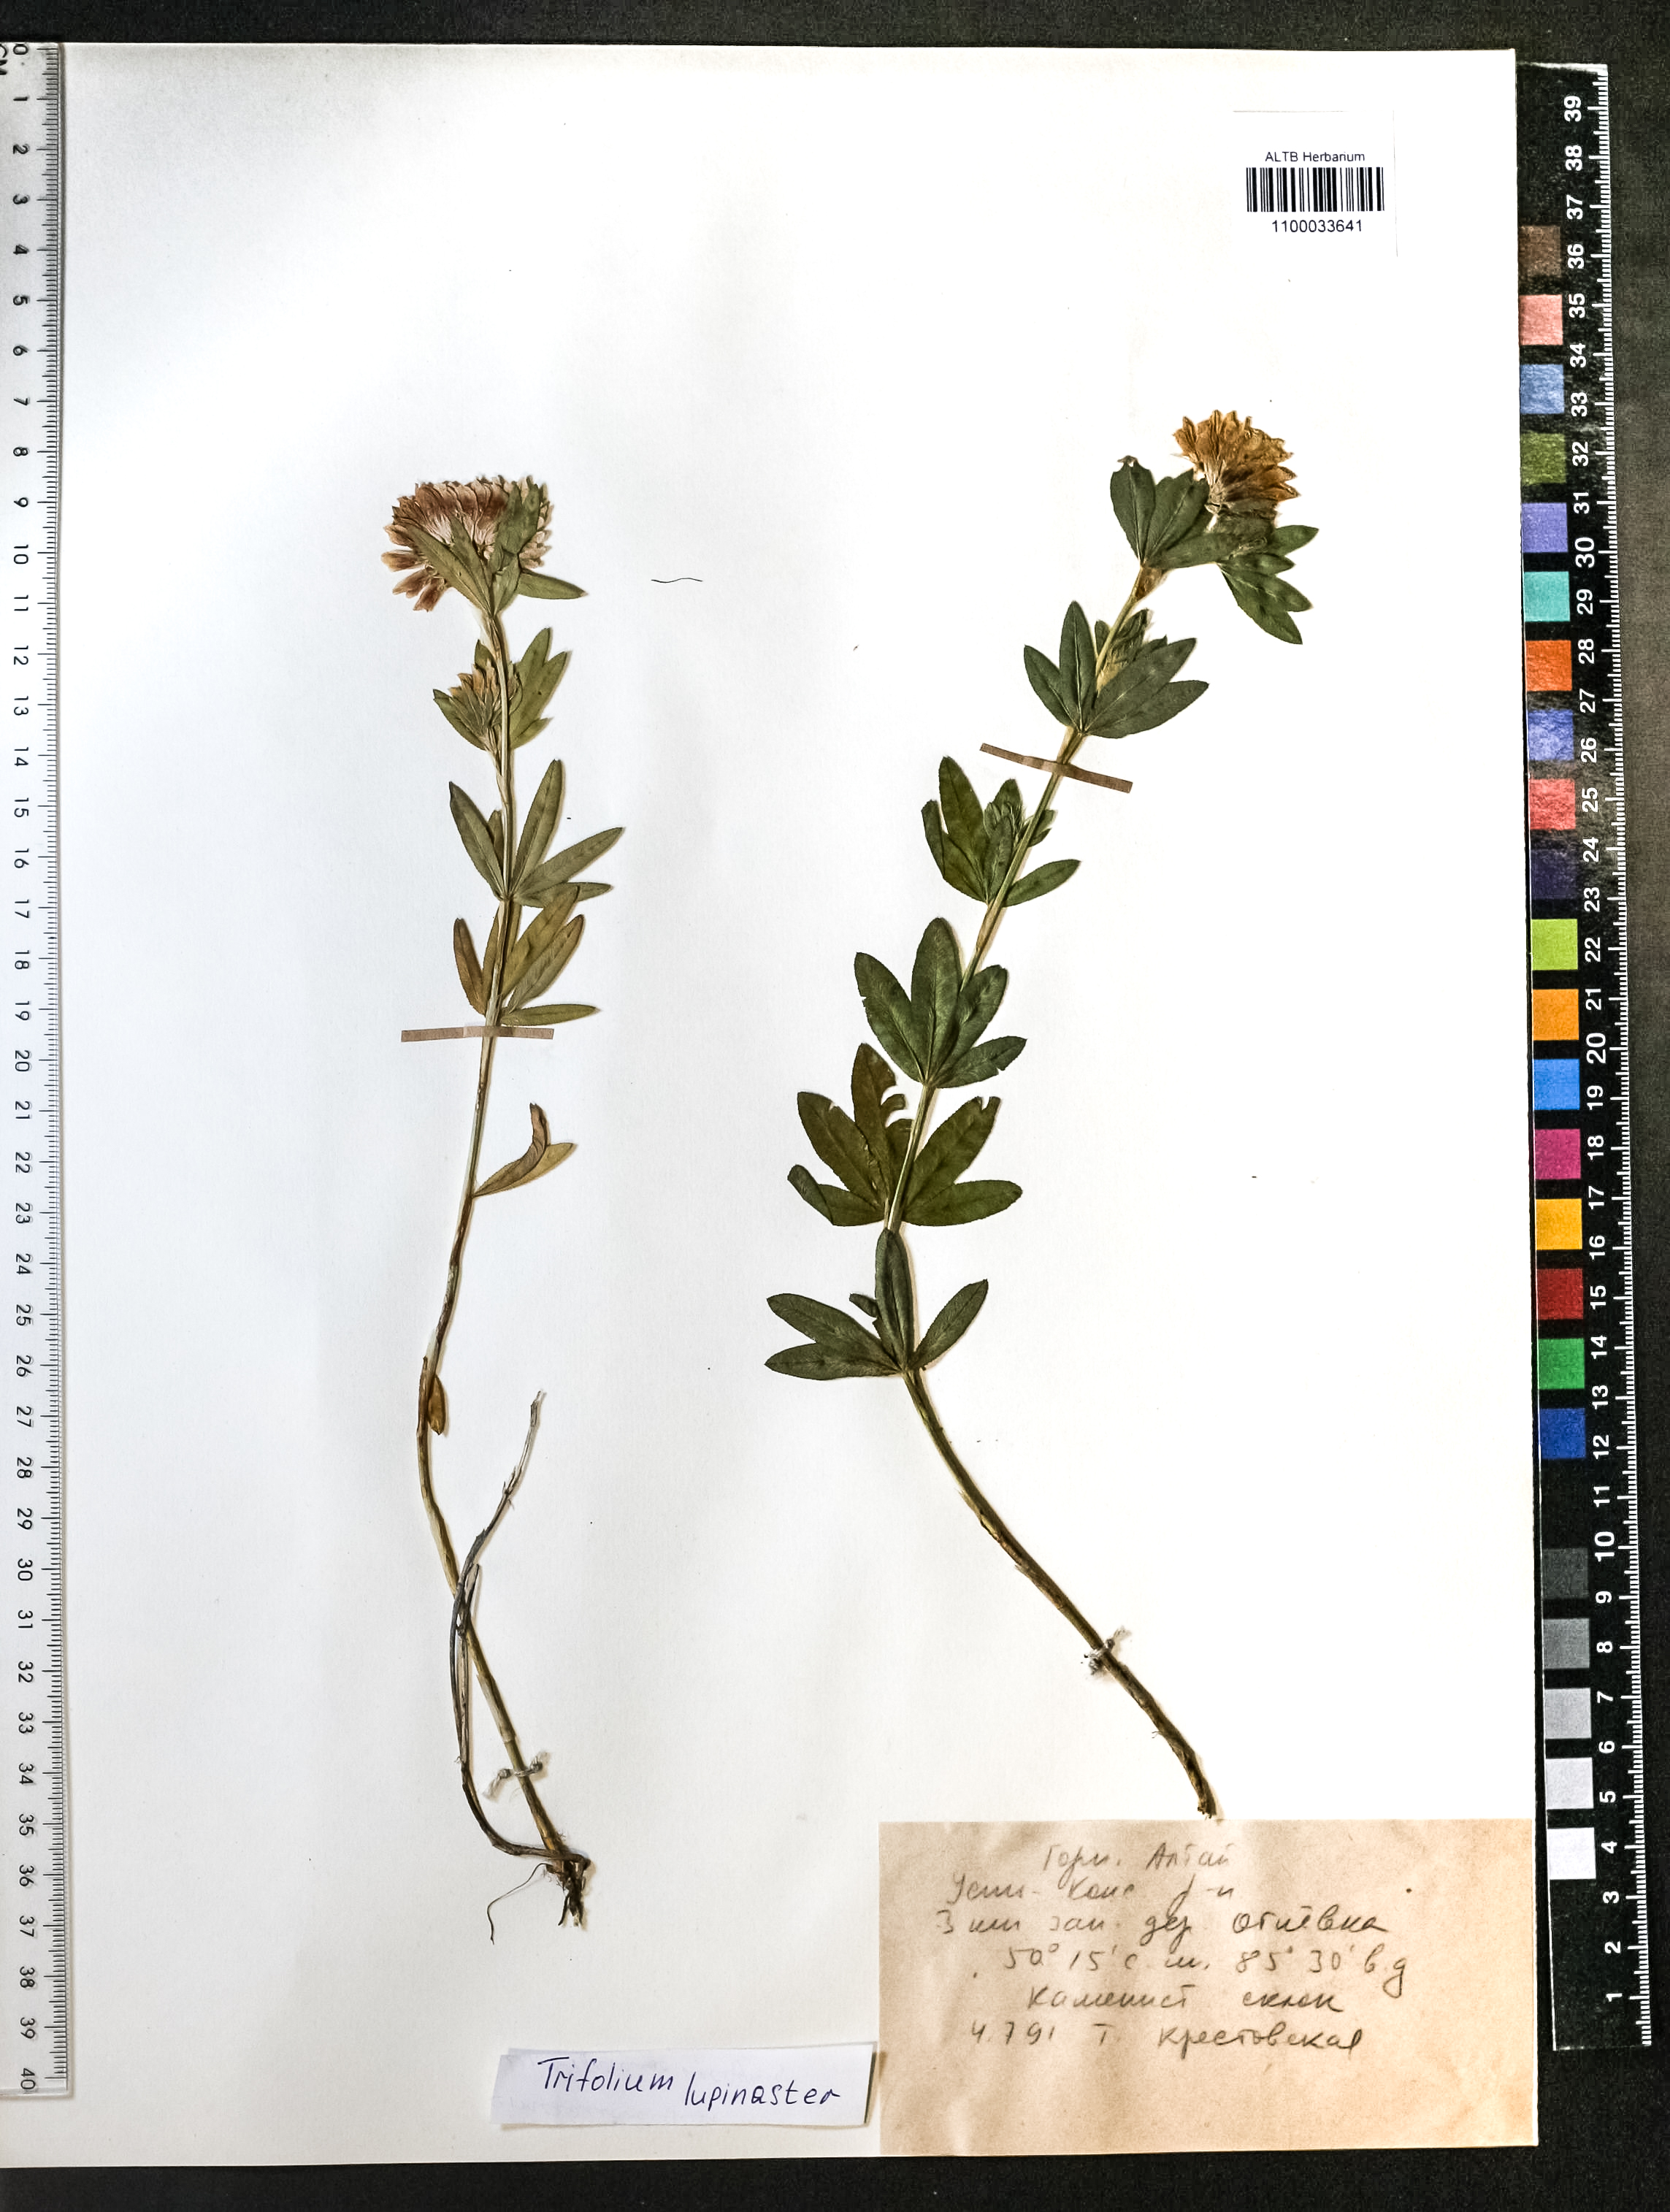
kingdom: Plantae
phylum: Tracheophyta
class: Magnoliopsida
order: Fabales
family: Fabaceae
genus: Trifolium
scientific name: Trifolium lupinaster
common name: Lupine clover
